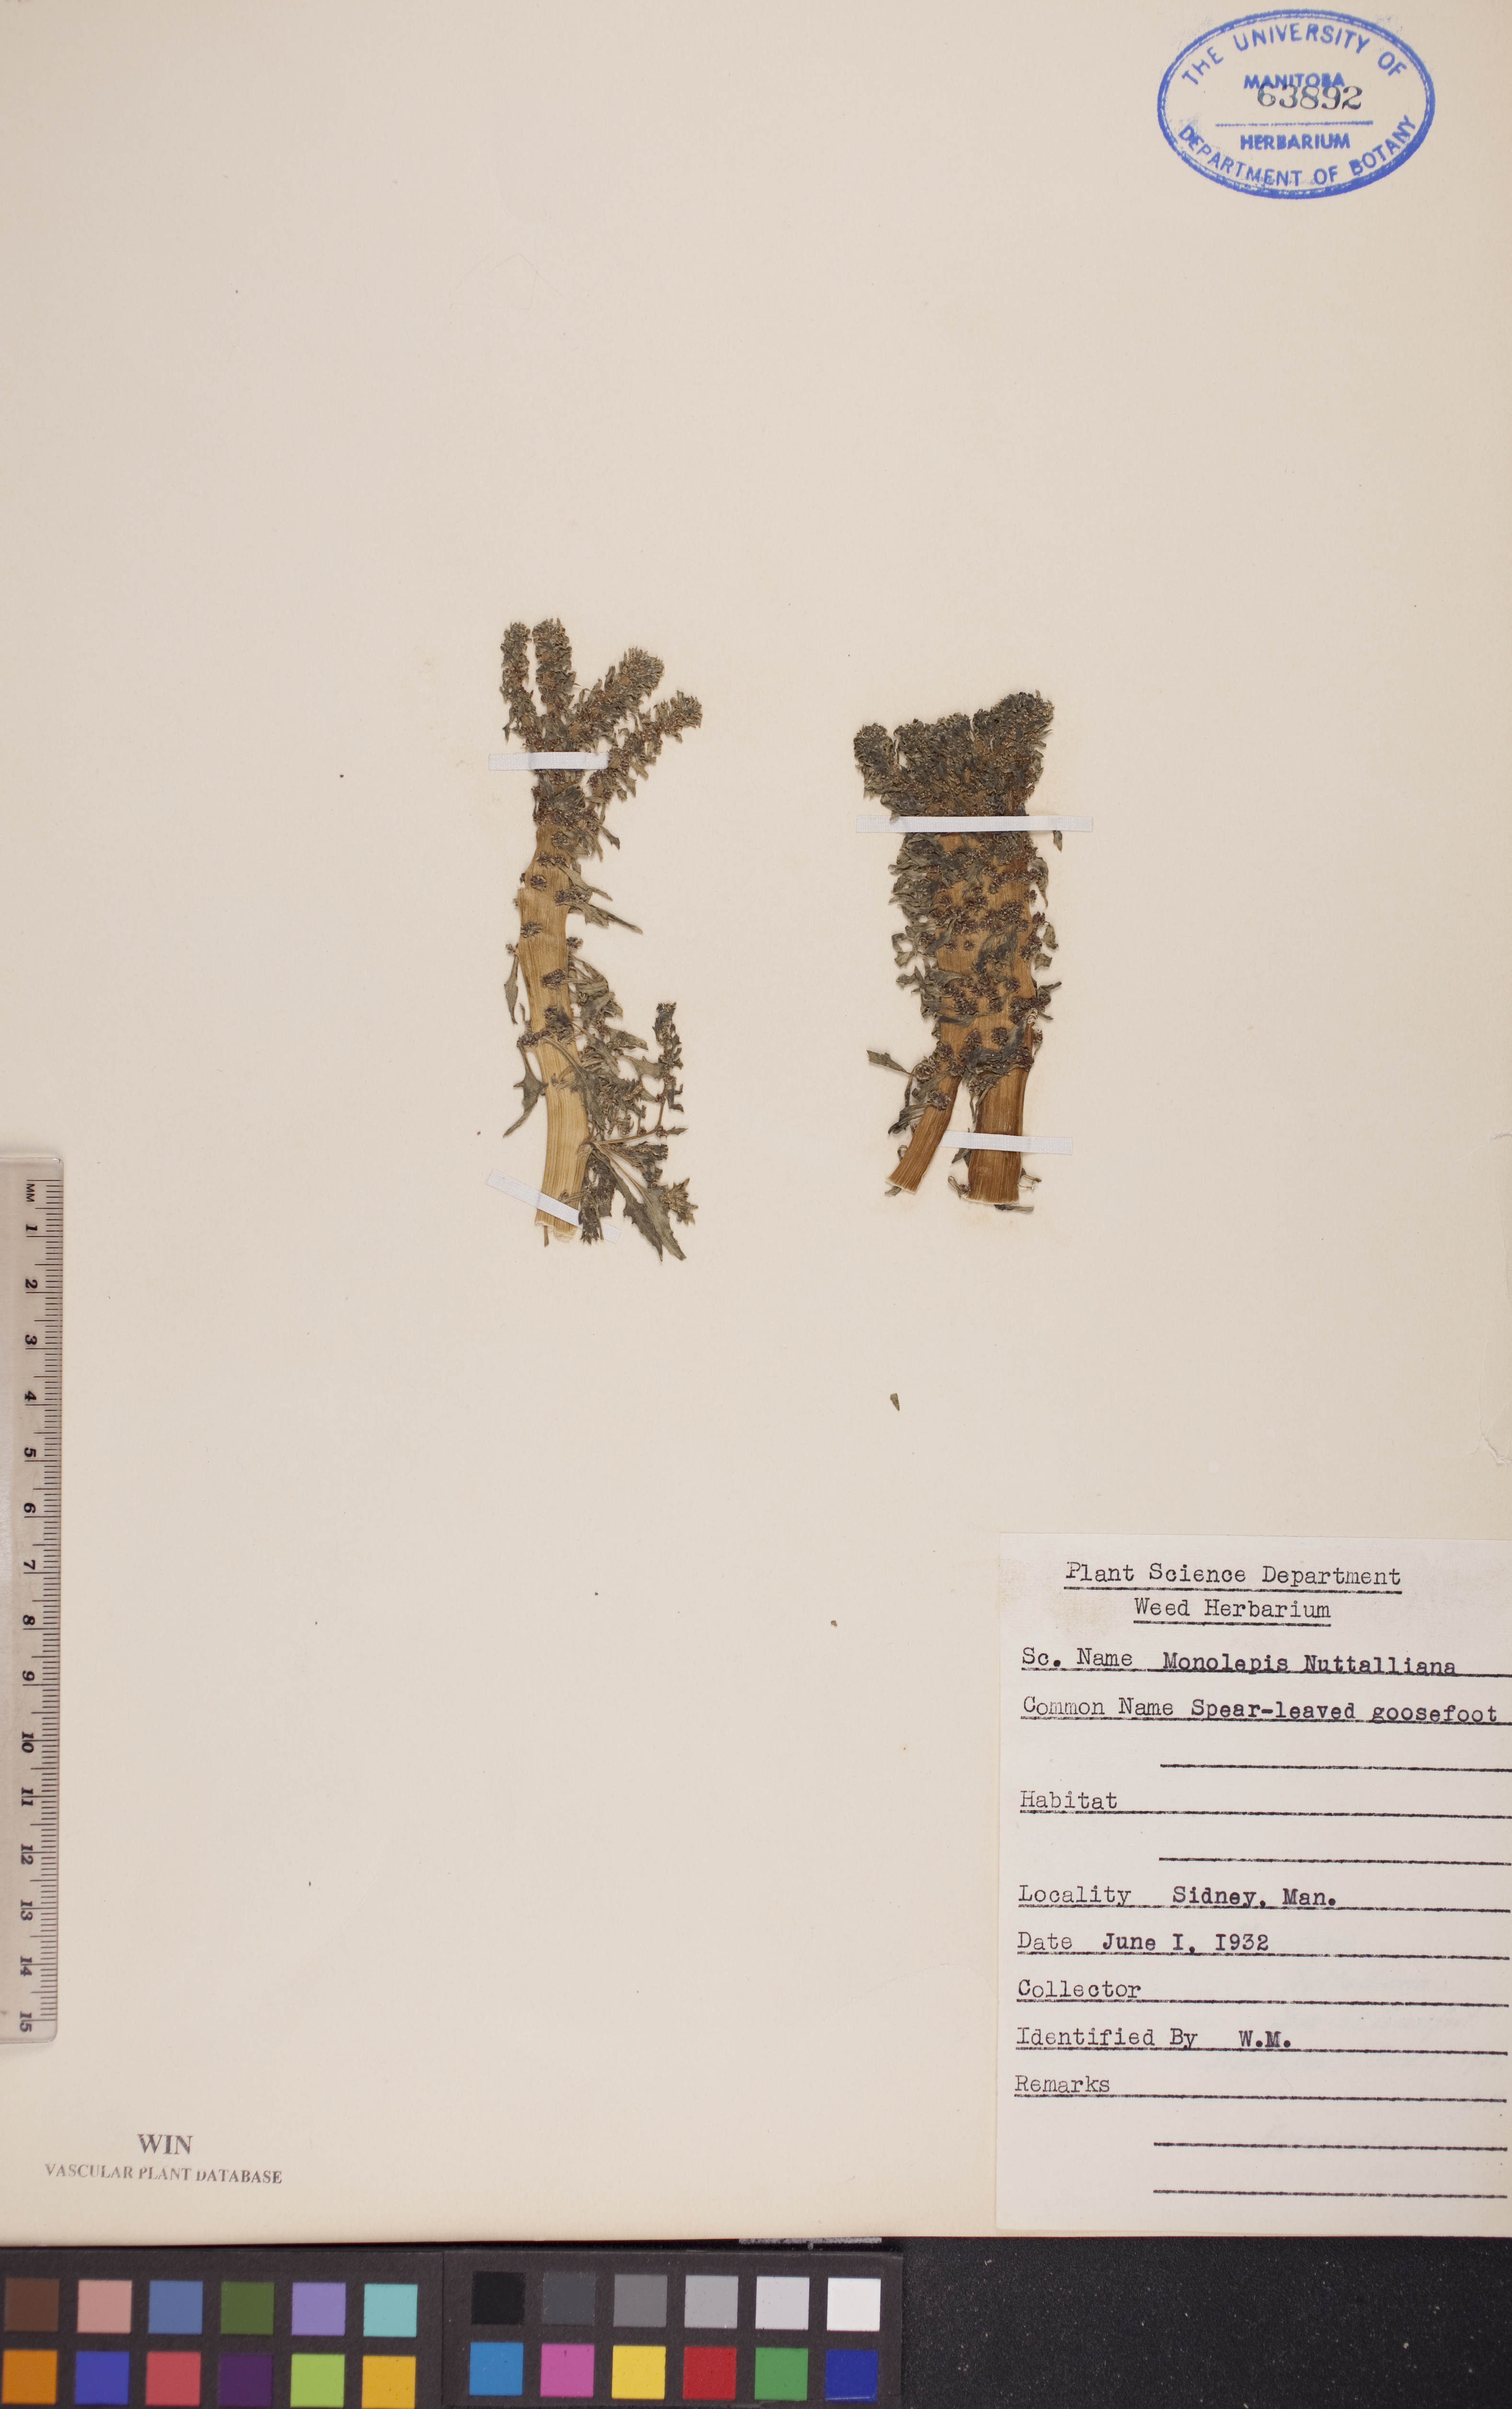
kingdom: Plantae
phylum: Tracheophyta
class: Magnoliopsida
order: Caryophyllales
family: Amaranthaceae
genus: Blitum
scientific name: Blitum nuttallianum
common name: Poverty-weed
